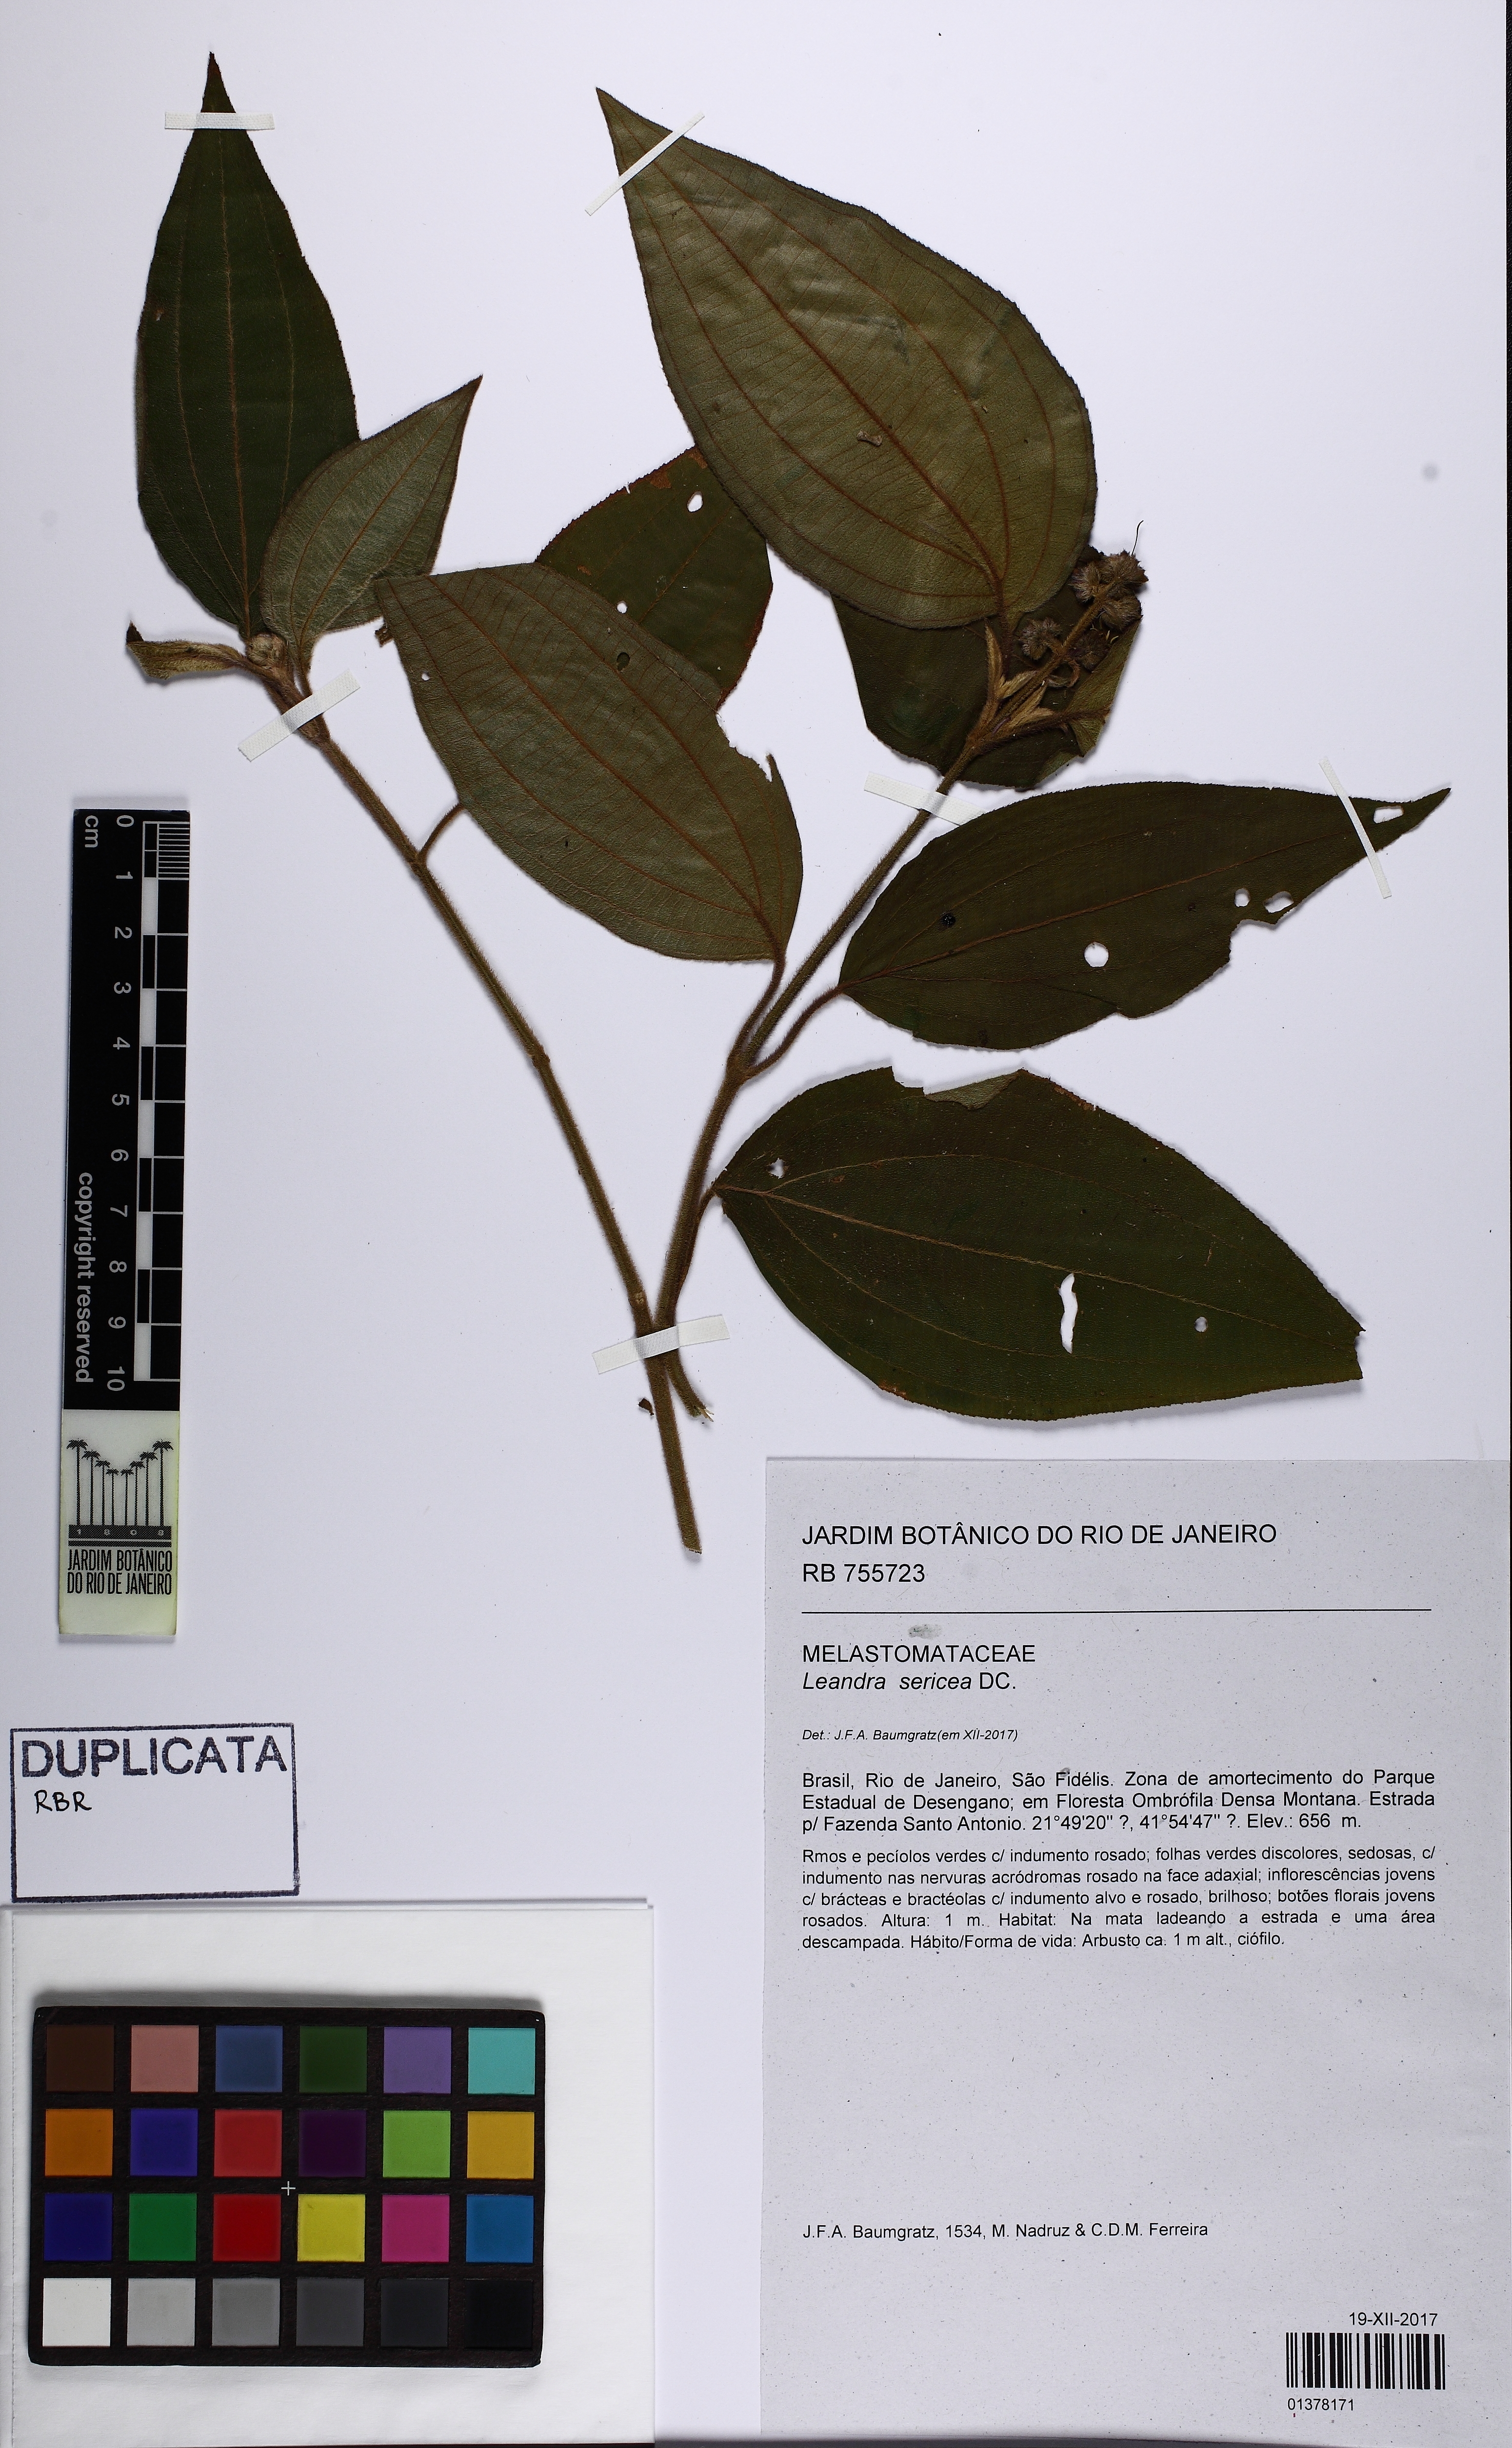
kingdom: Plantae
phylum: Tracheophyta
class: Magnoliopsida
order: Myrtales
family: Melastomataceae
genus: Miconia
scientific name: Miconia raddii
